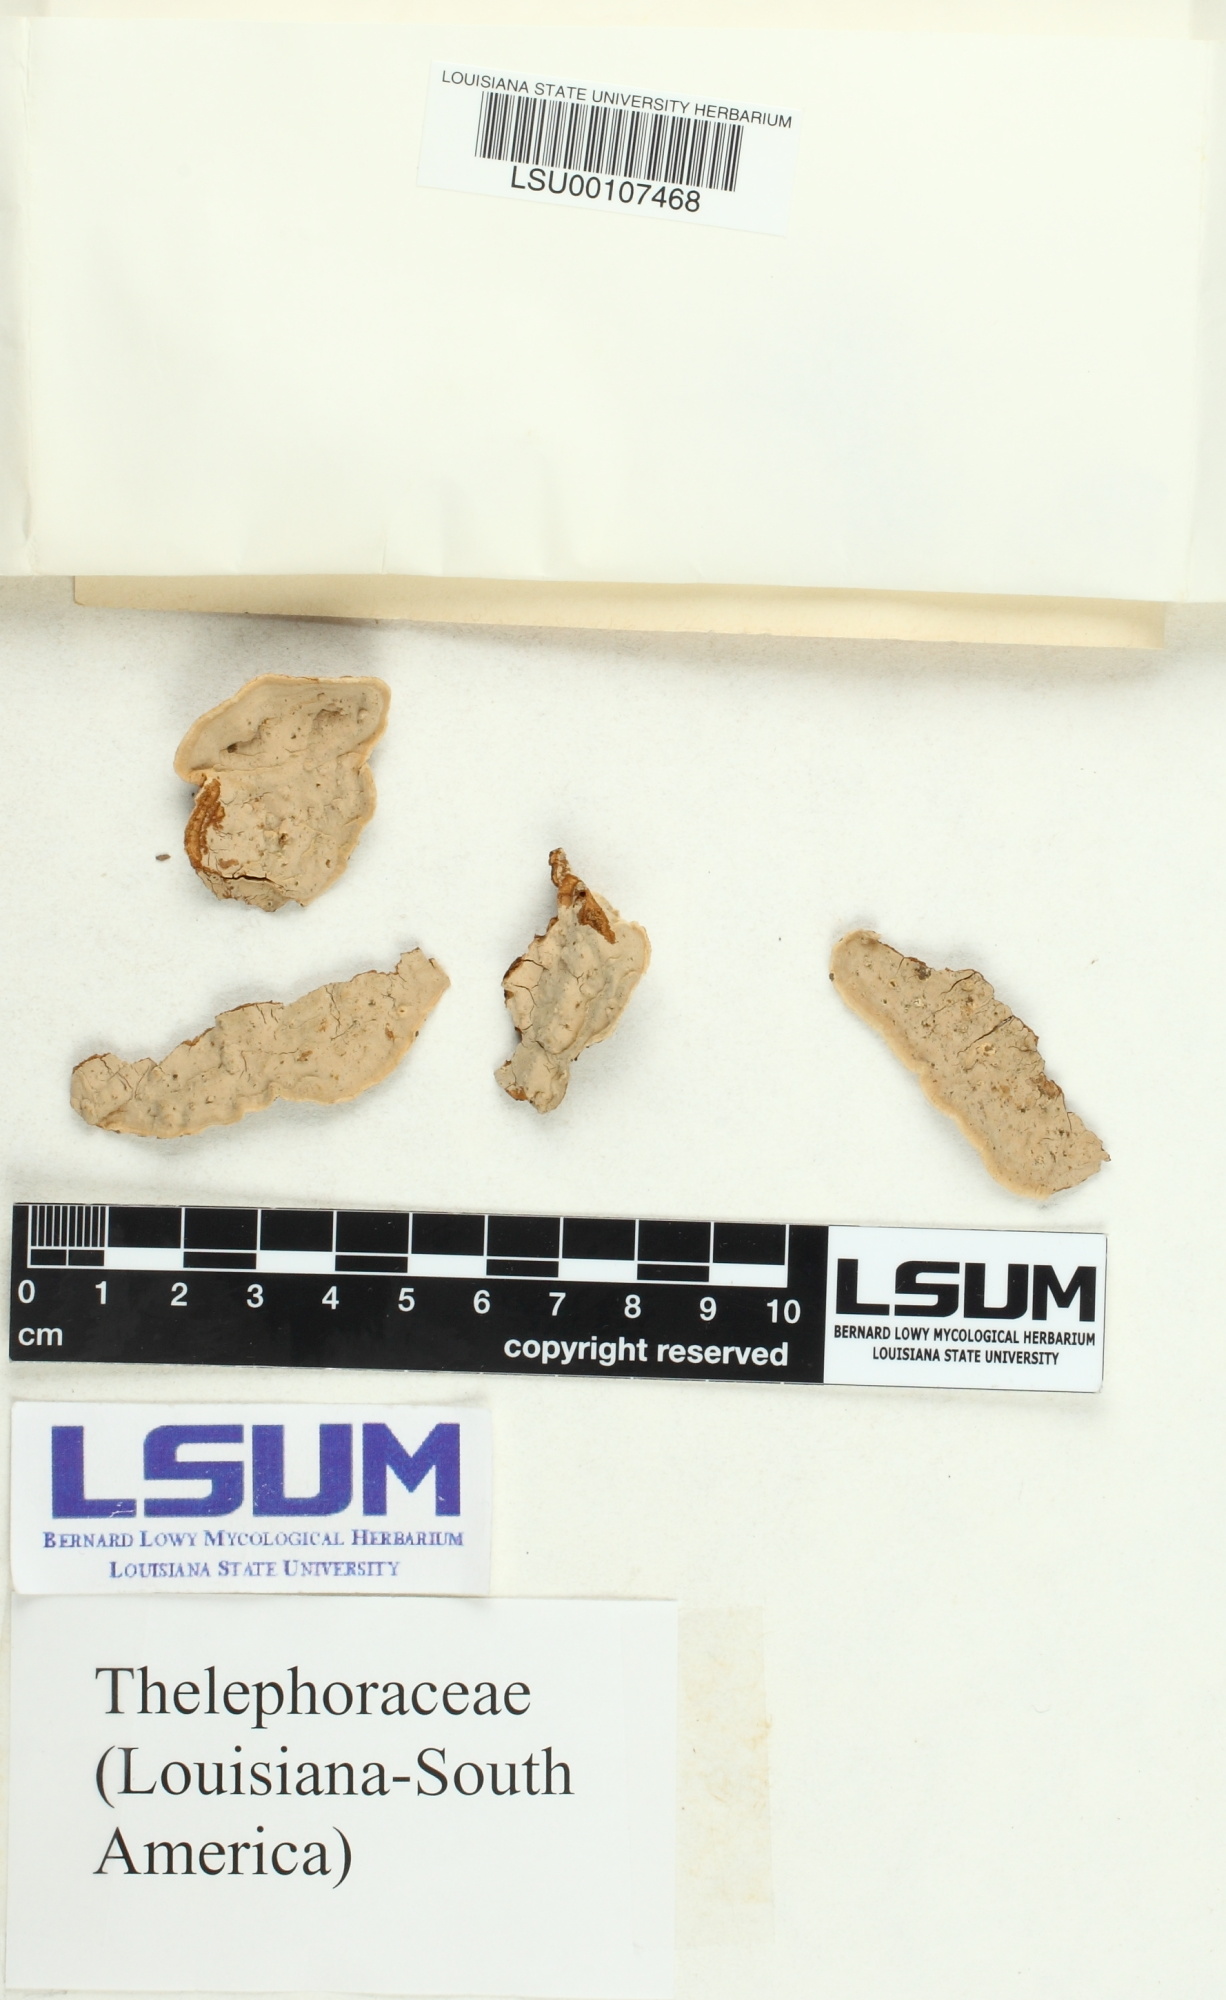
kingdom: Fungi
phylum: Basidiomycota
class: Agaricomycetes
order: Thelephorales
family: Thelephoraceae
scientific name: Thelephoraceae
